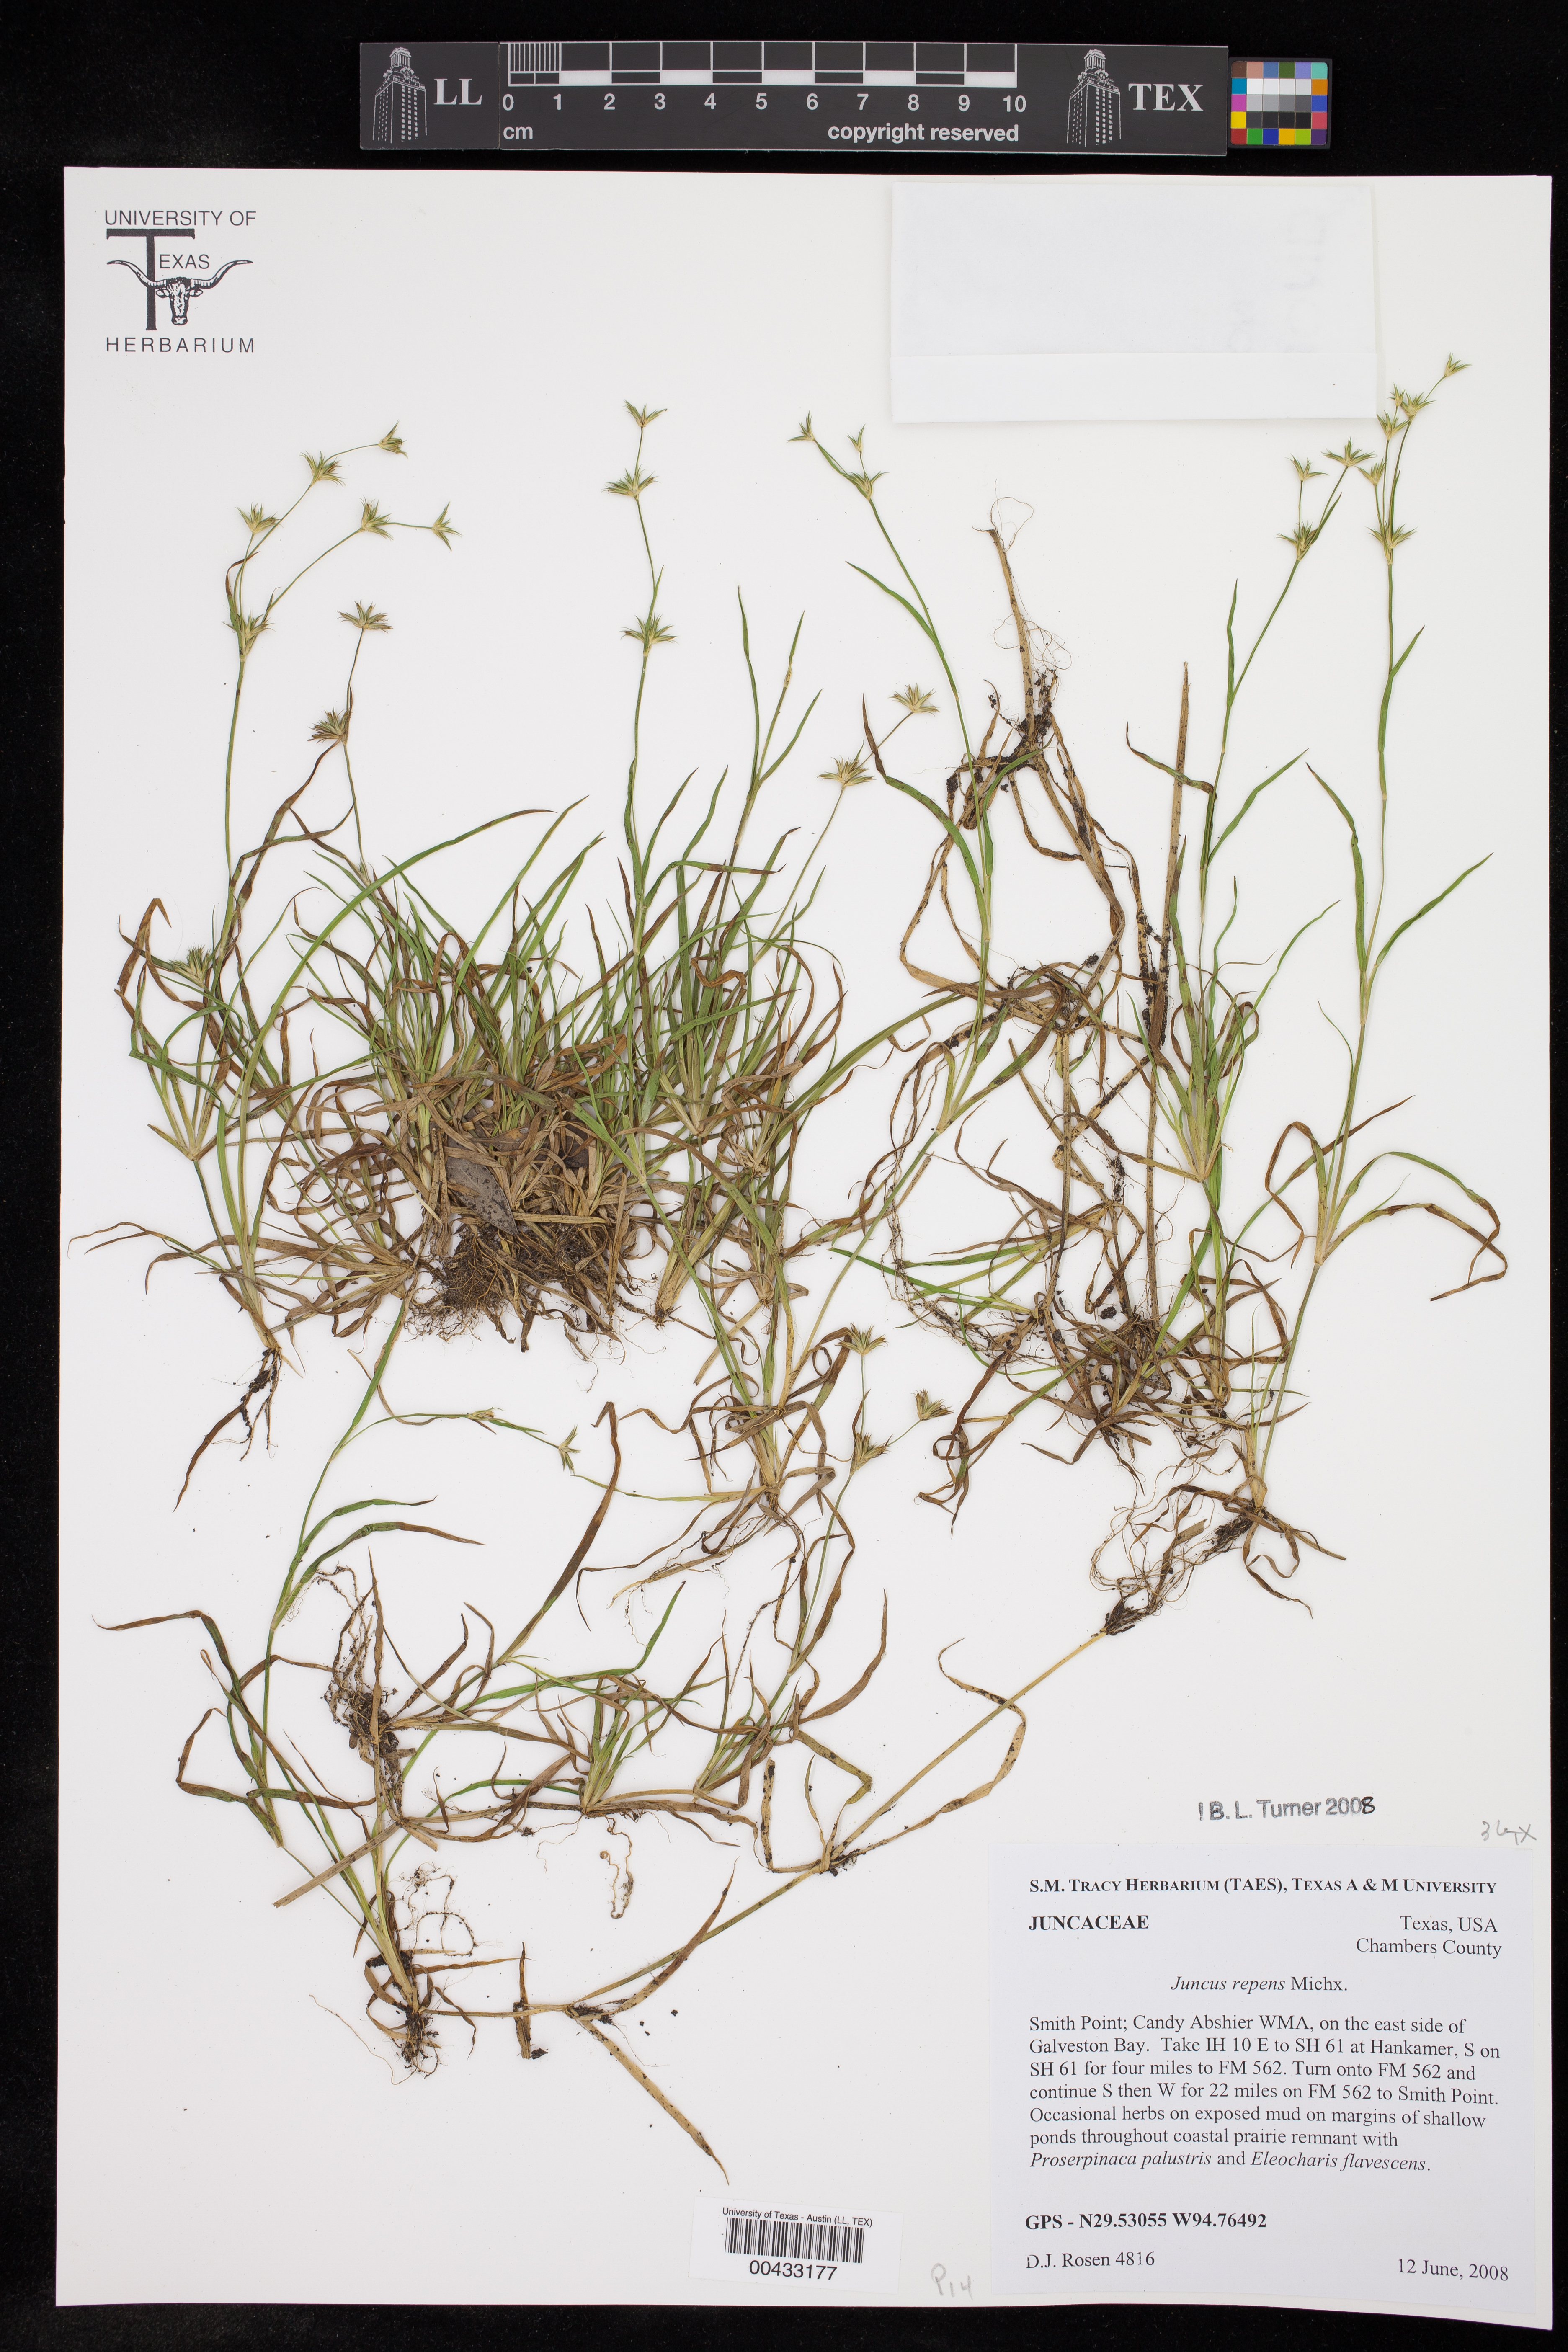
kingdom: Plantae
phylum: Tracheophyta
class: Liliopsida
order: Poales
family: Juncaceae
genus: Juncus
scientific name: Juncus repens
